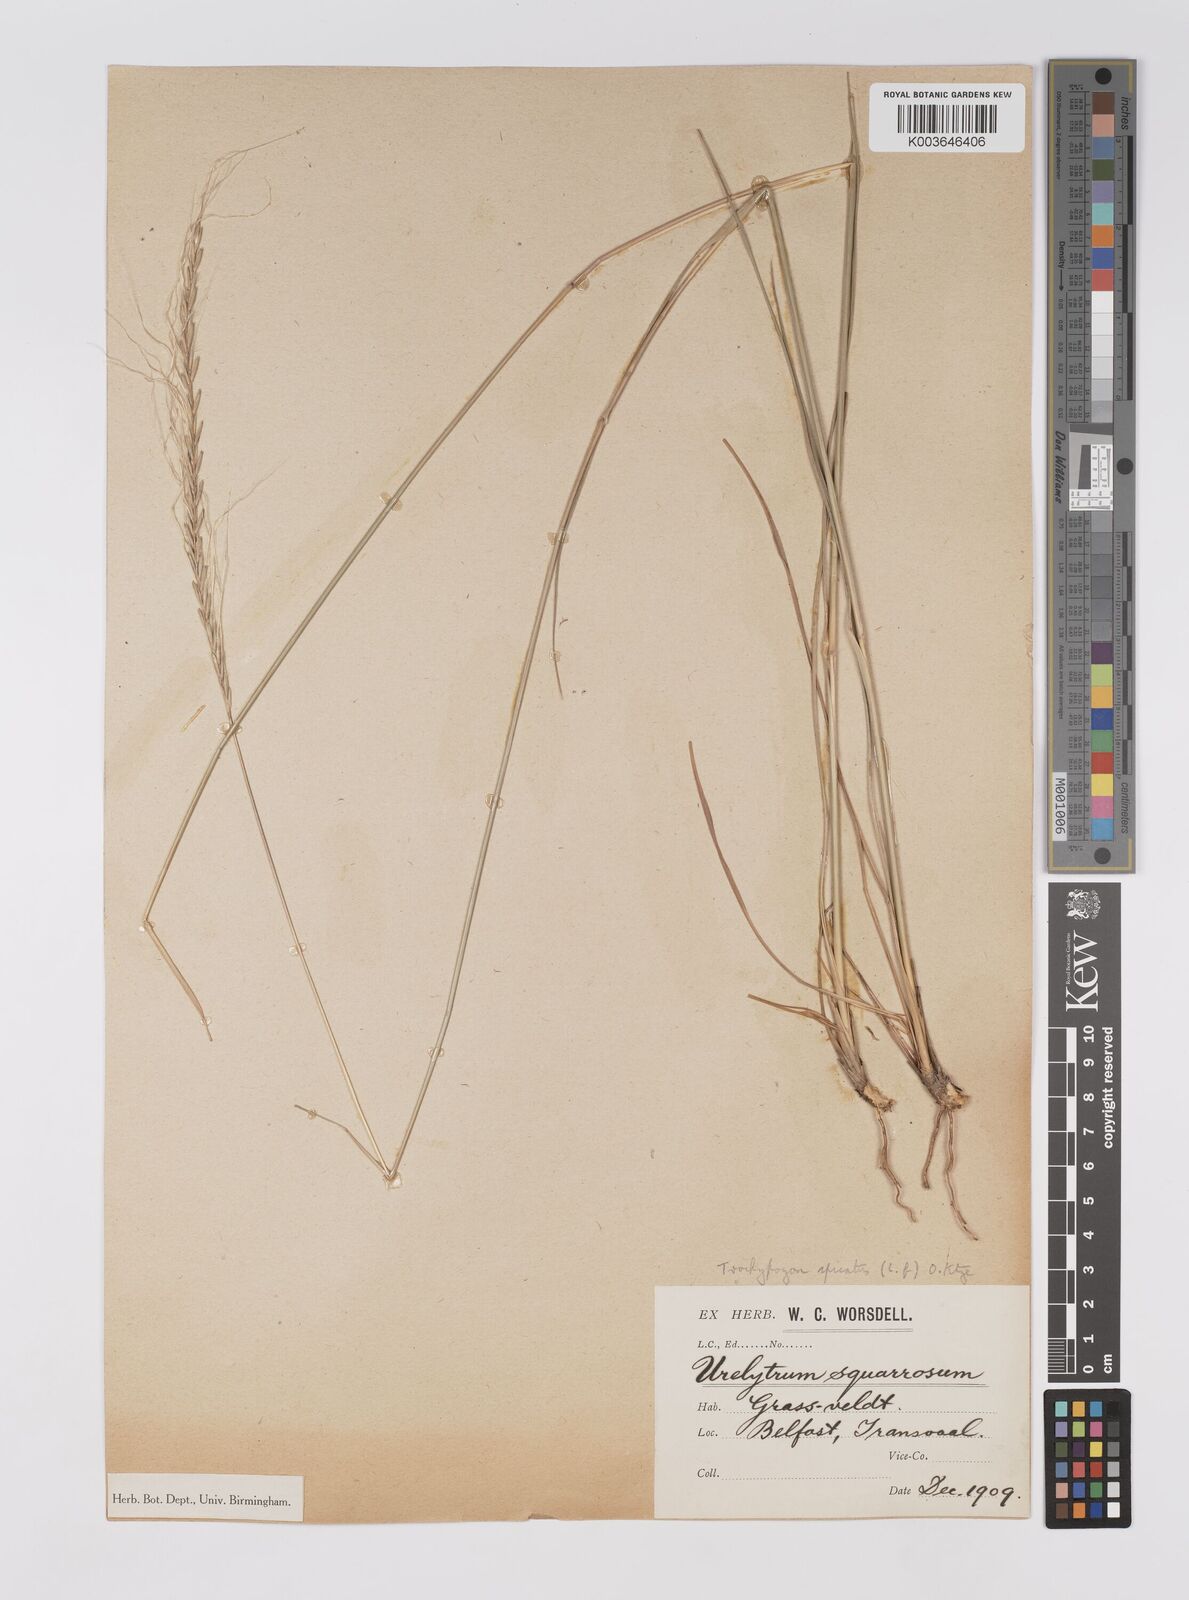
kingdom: Plantae
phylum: Tracheophyta
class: Liliopsida
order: Poales
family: Poaceae
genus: Trachypogon
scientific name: Trachypogon spicatus
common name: Crinkle-awn
